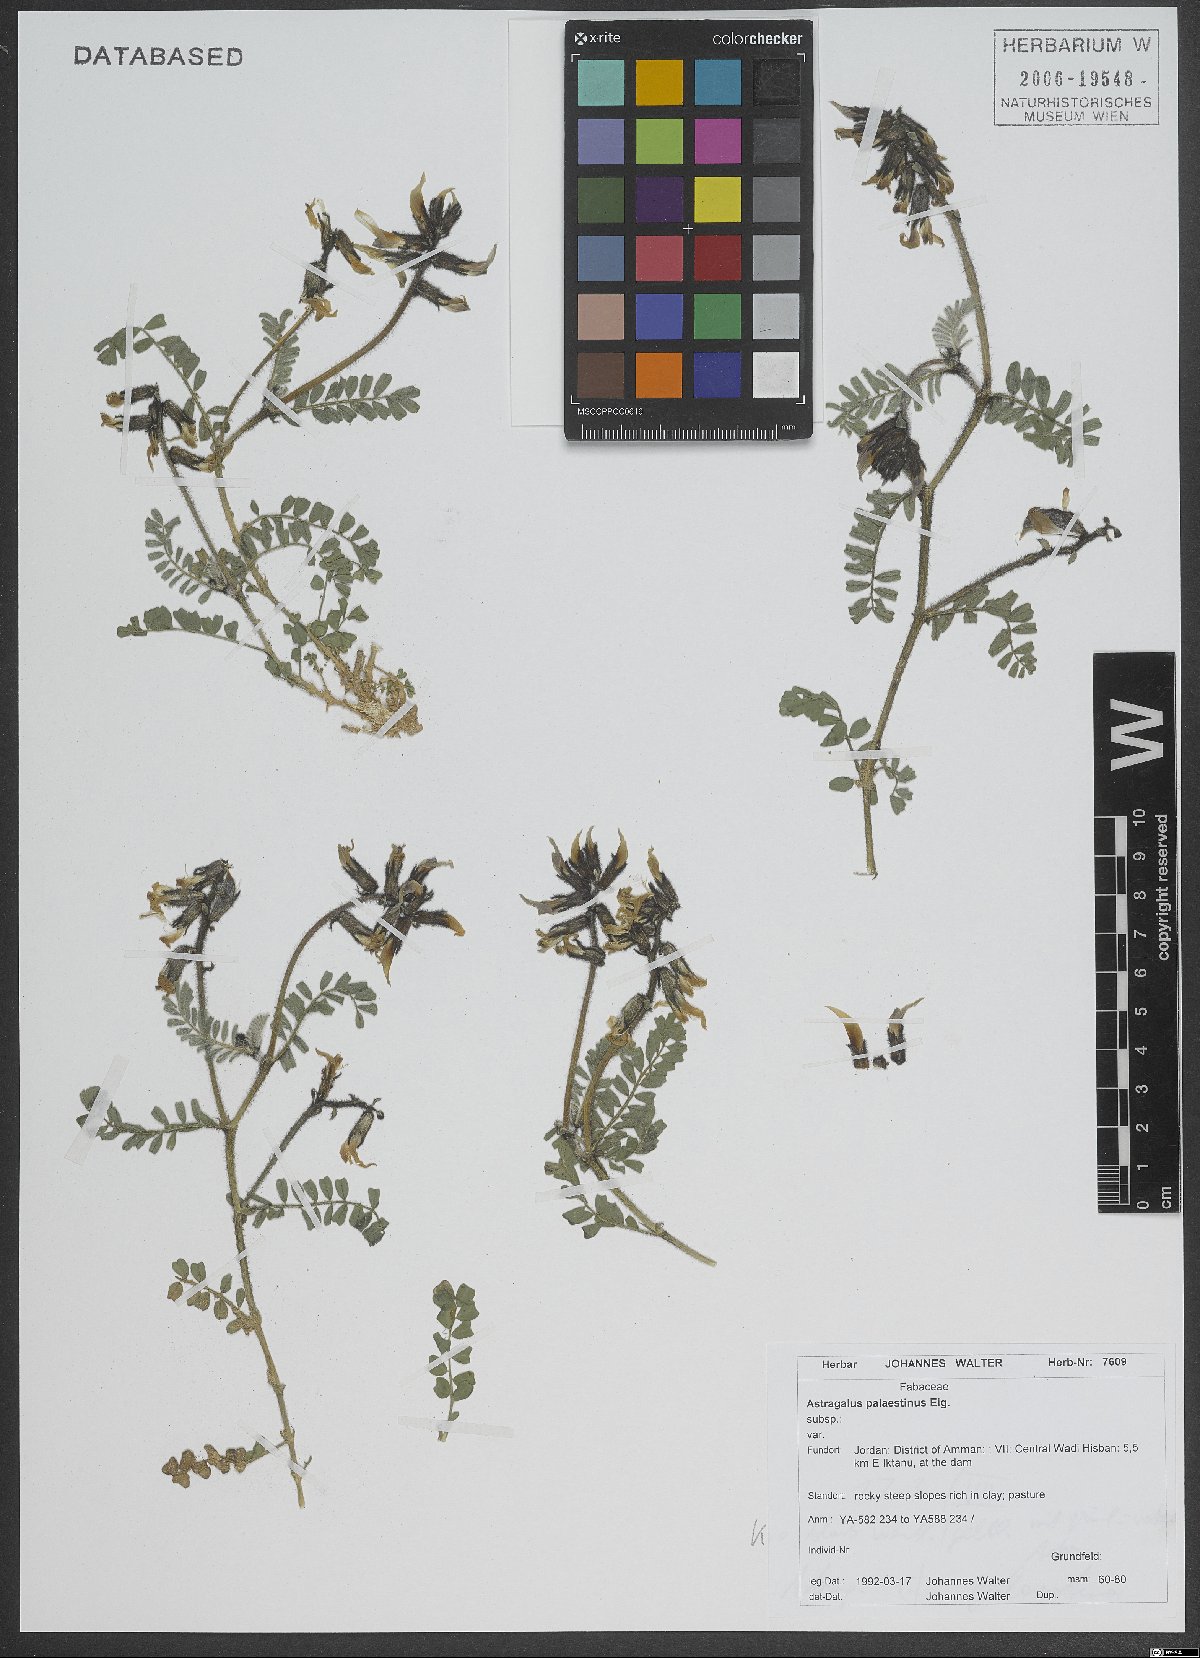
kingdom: Plantae
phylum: Tracheophyta
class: Magnoliopsida
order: Fabales
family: Fabaceae
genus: Astragalus
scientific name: Astragalus palaestinus
